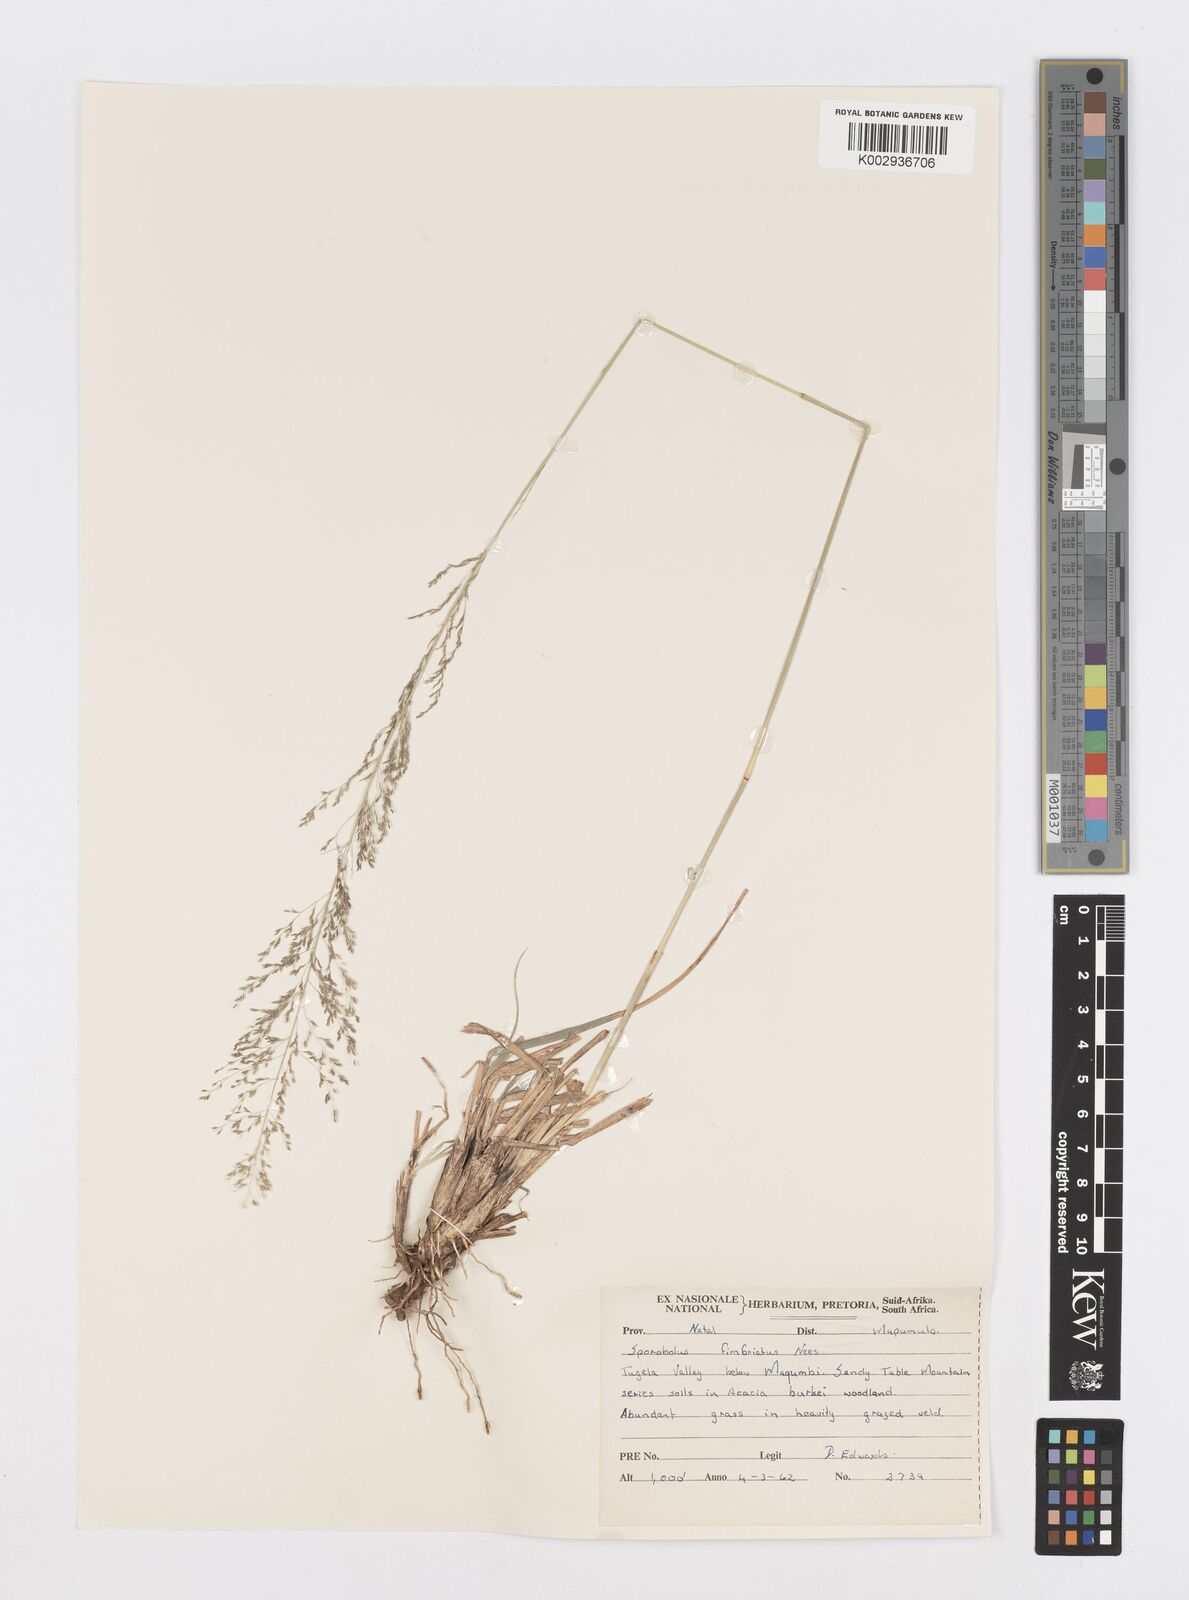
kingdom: Plantae
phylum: Tracheophyta
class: Liliopsida
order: Poales
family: Poaceae
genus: Sporobolus
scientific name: Sporobolus fimbriatus
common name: Fringed dropseed
